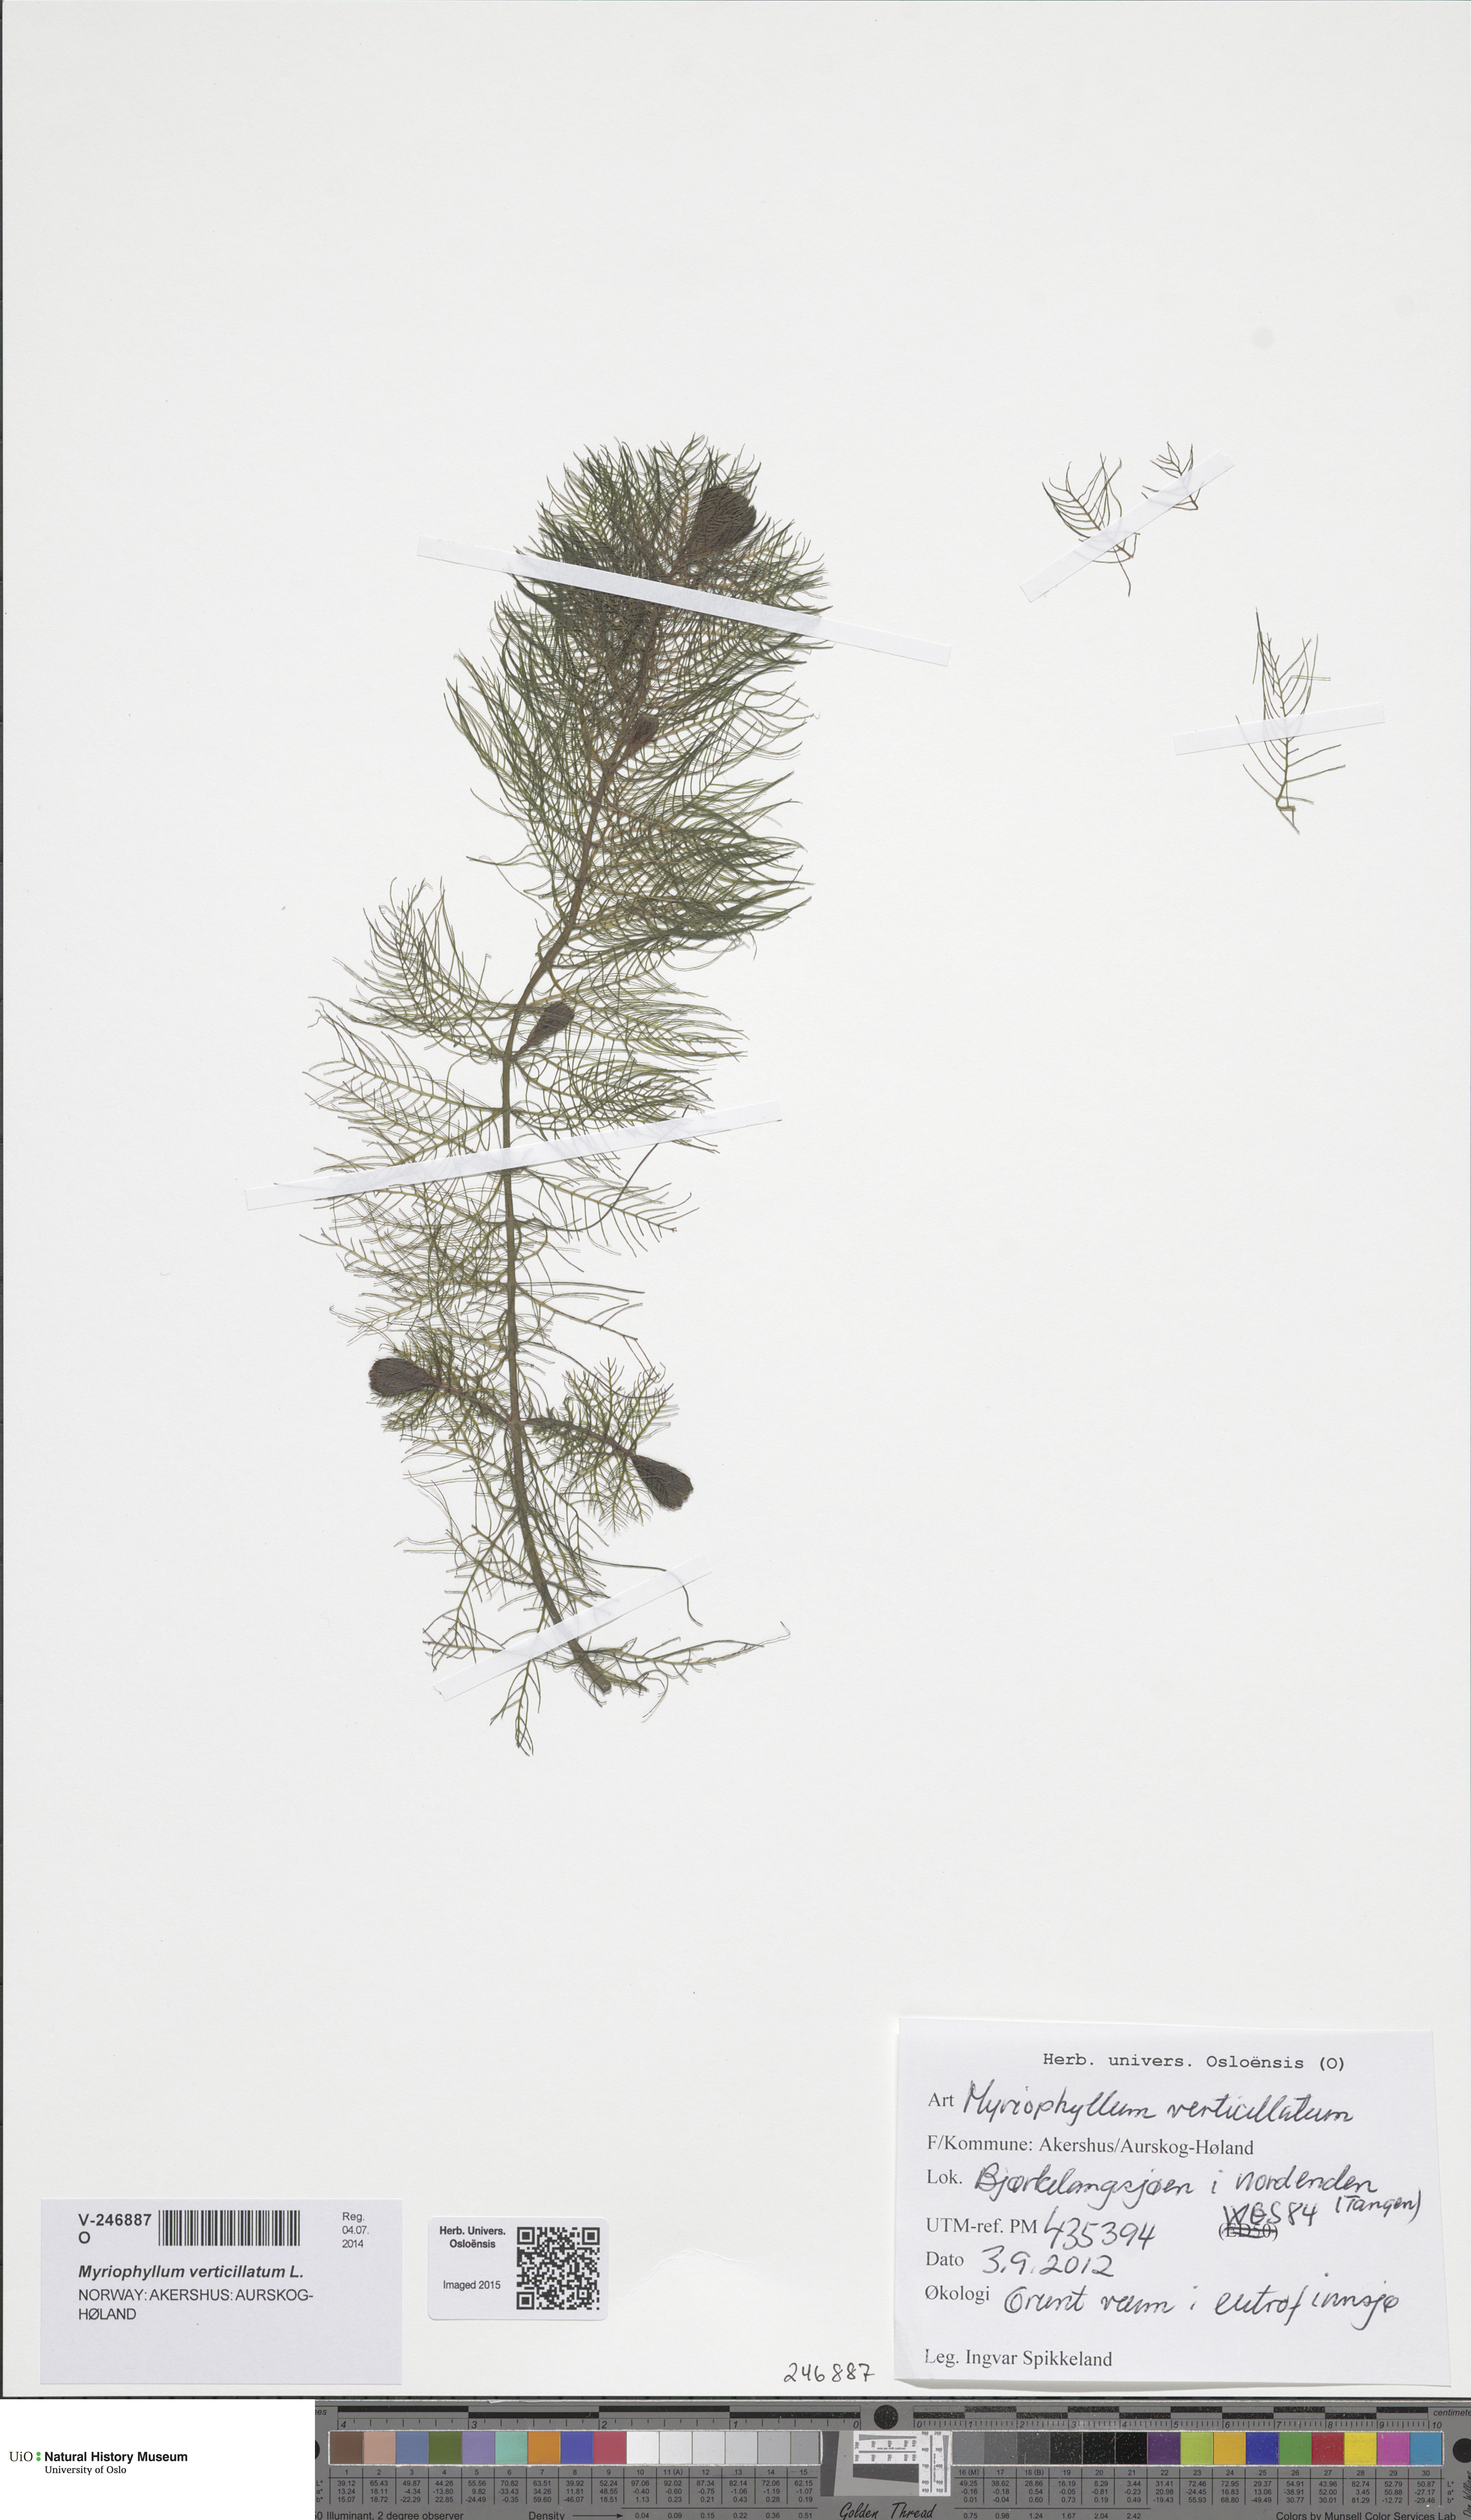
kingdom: Plantae
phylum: Tracheophyta
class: Magnoliopsida
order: Saxifragales
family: Haloragaceae
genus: Myriophyllum
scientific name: Myriophyllum verticillatum
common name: Whorled water-milfoil
